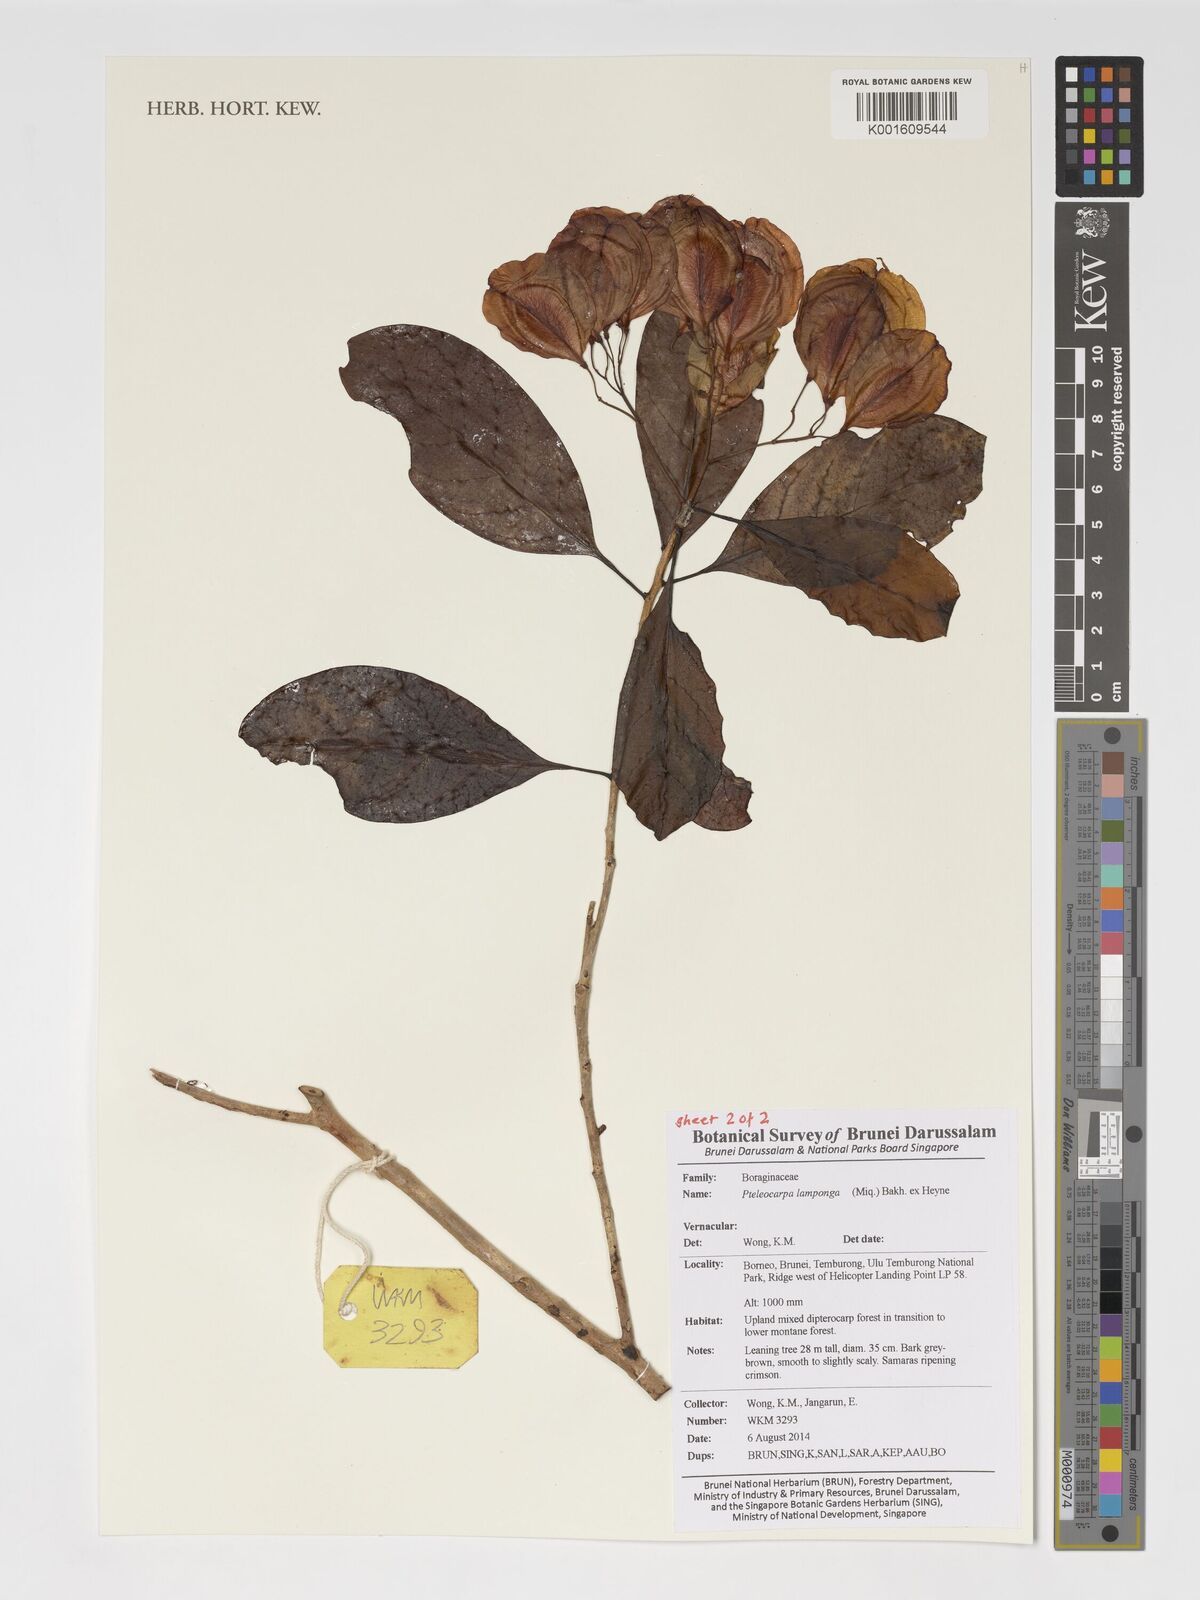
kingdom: Plantae
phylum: Tracheophyta
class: Magnoliopsida
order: Gentianales
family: Gelsemiaceae
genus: Pteleocarpa
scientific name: Pteleocarpa lamponga
